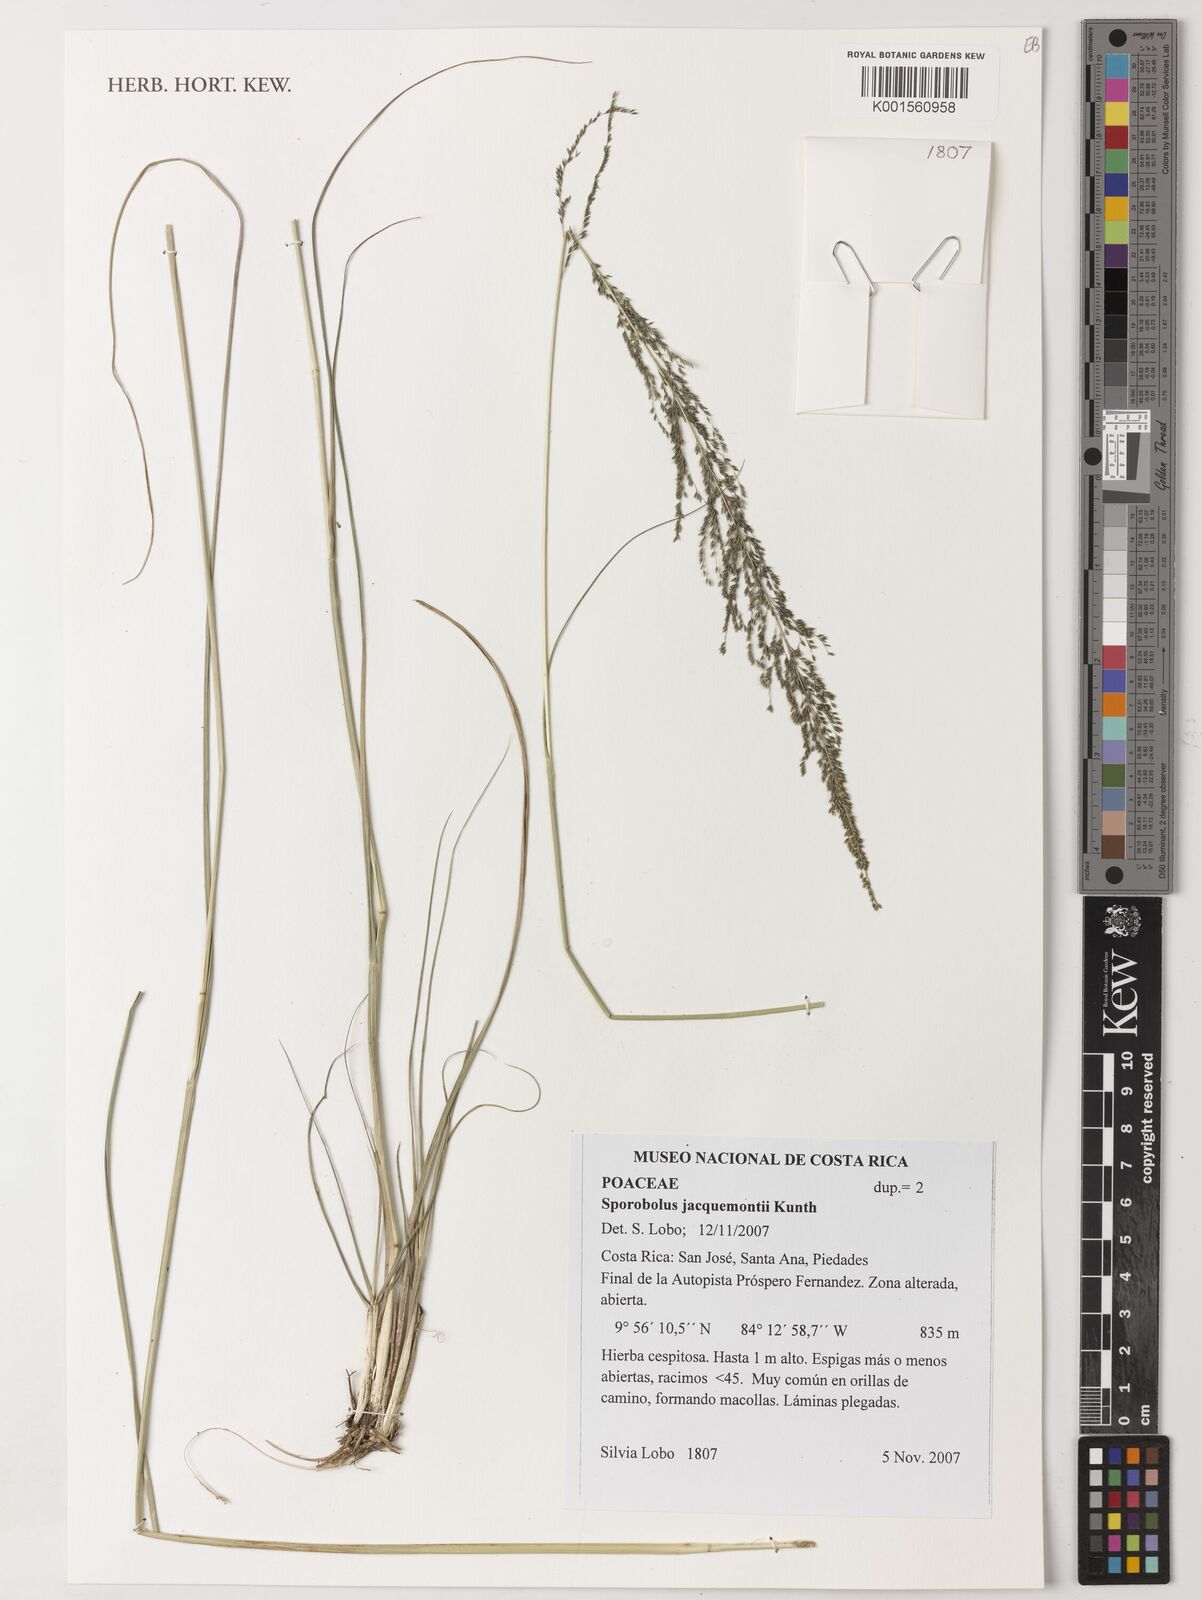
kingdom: Plantae
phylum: Tracheophyta
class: Liliopsida
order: Poales
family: Poaceae
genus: Sporobolus
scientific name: Sporobolus pyramidalis
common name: West indian dropseed
